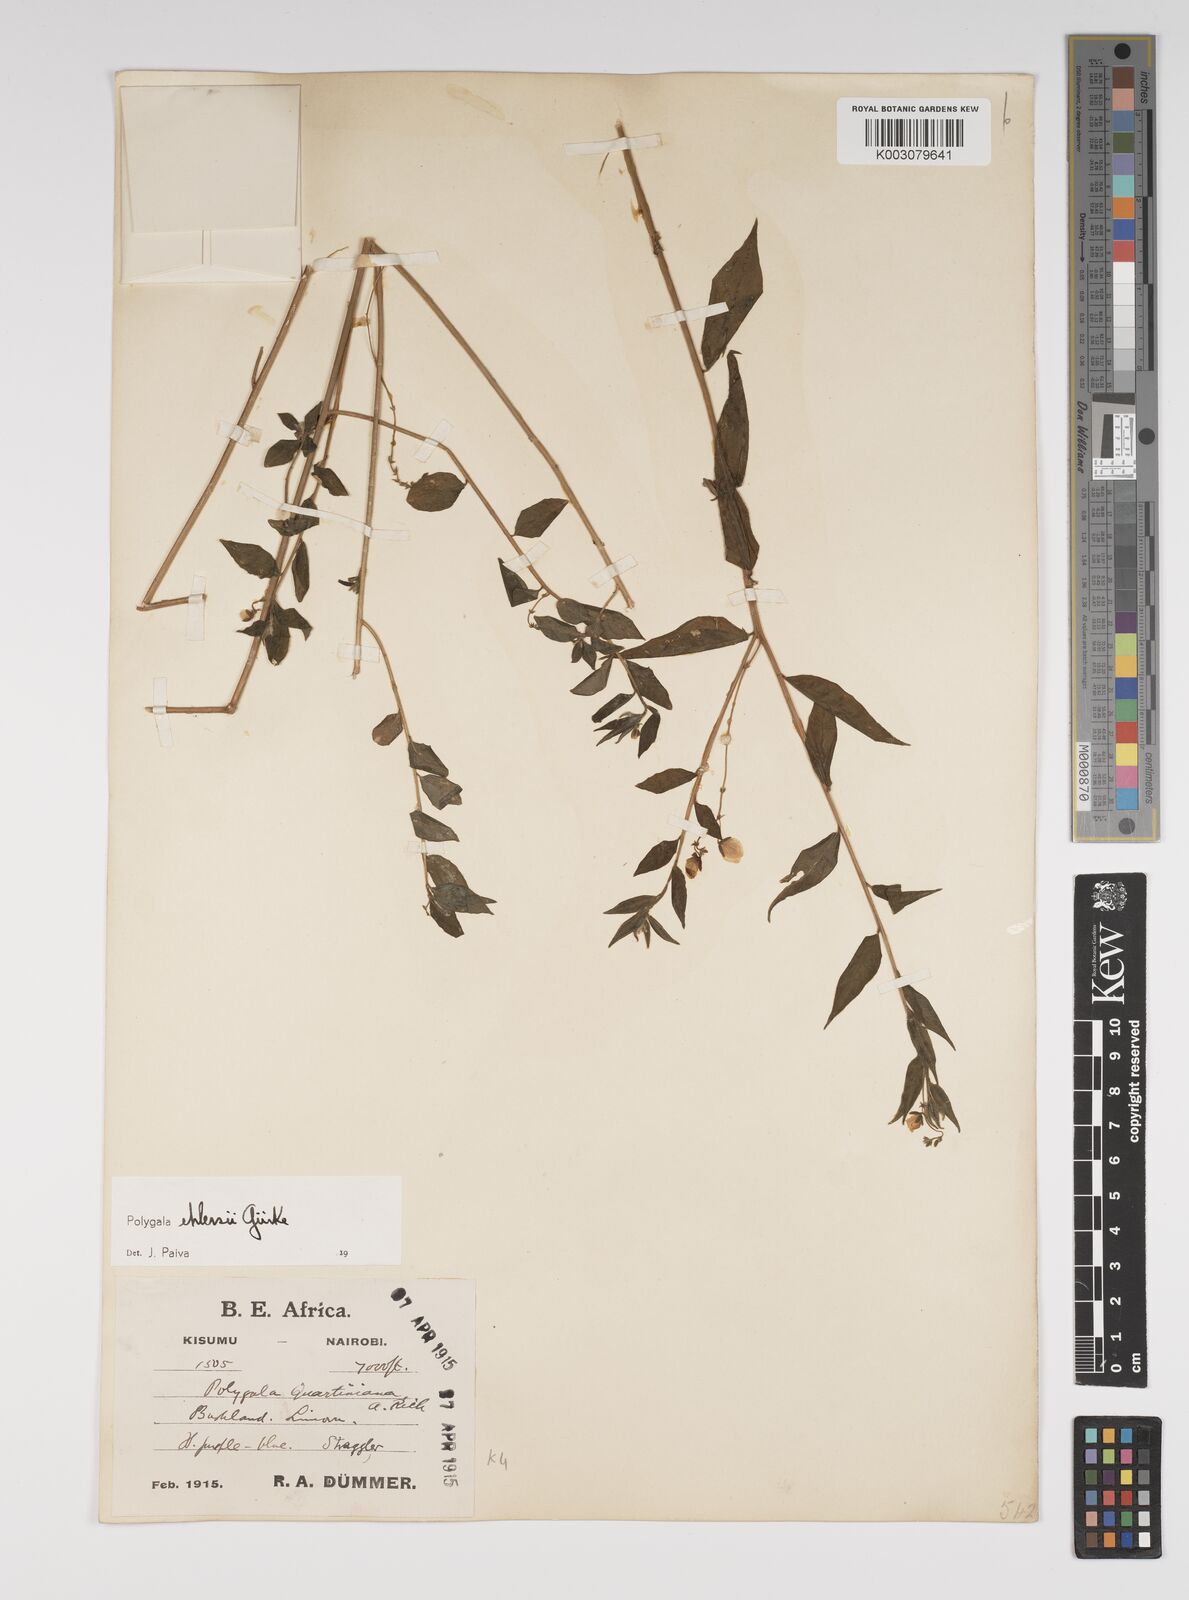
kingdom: Plantae
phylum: Tracheophyta
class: Magnoliopsida
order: Fabales
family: Polygalaceae
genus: Polygala
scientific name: Polygala ehlersii
